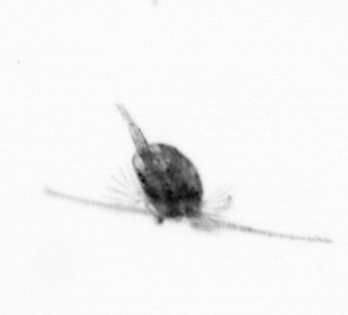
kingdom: Animalia
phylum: Arthropoda
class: Copepoda
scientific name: Copepoda
